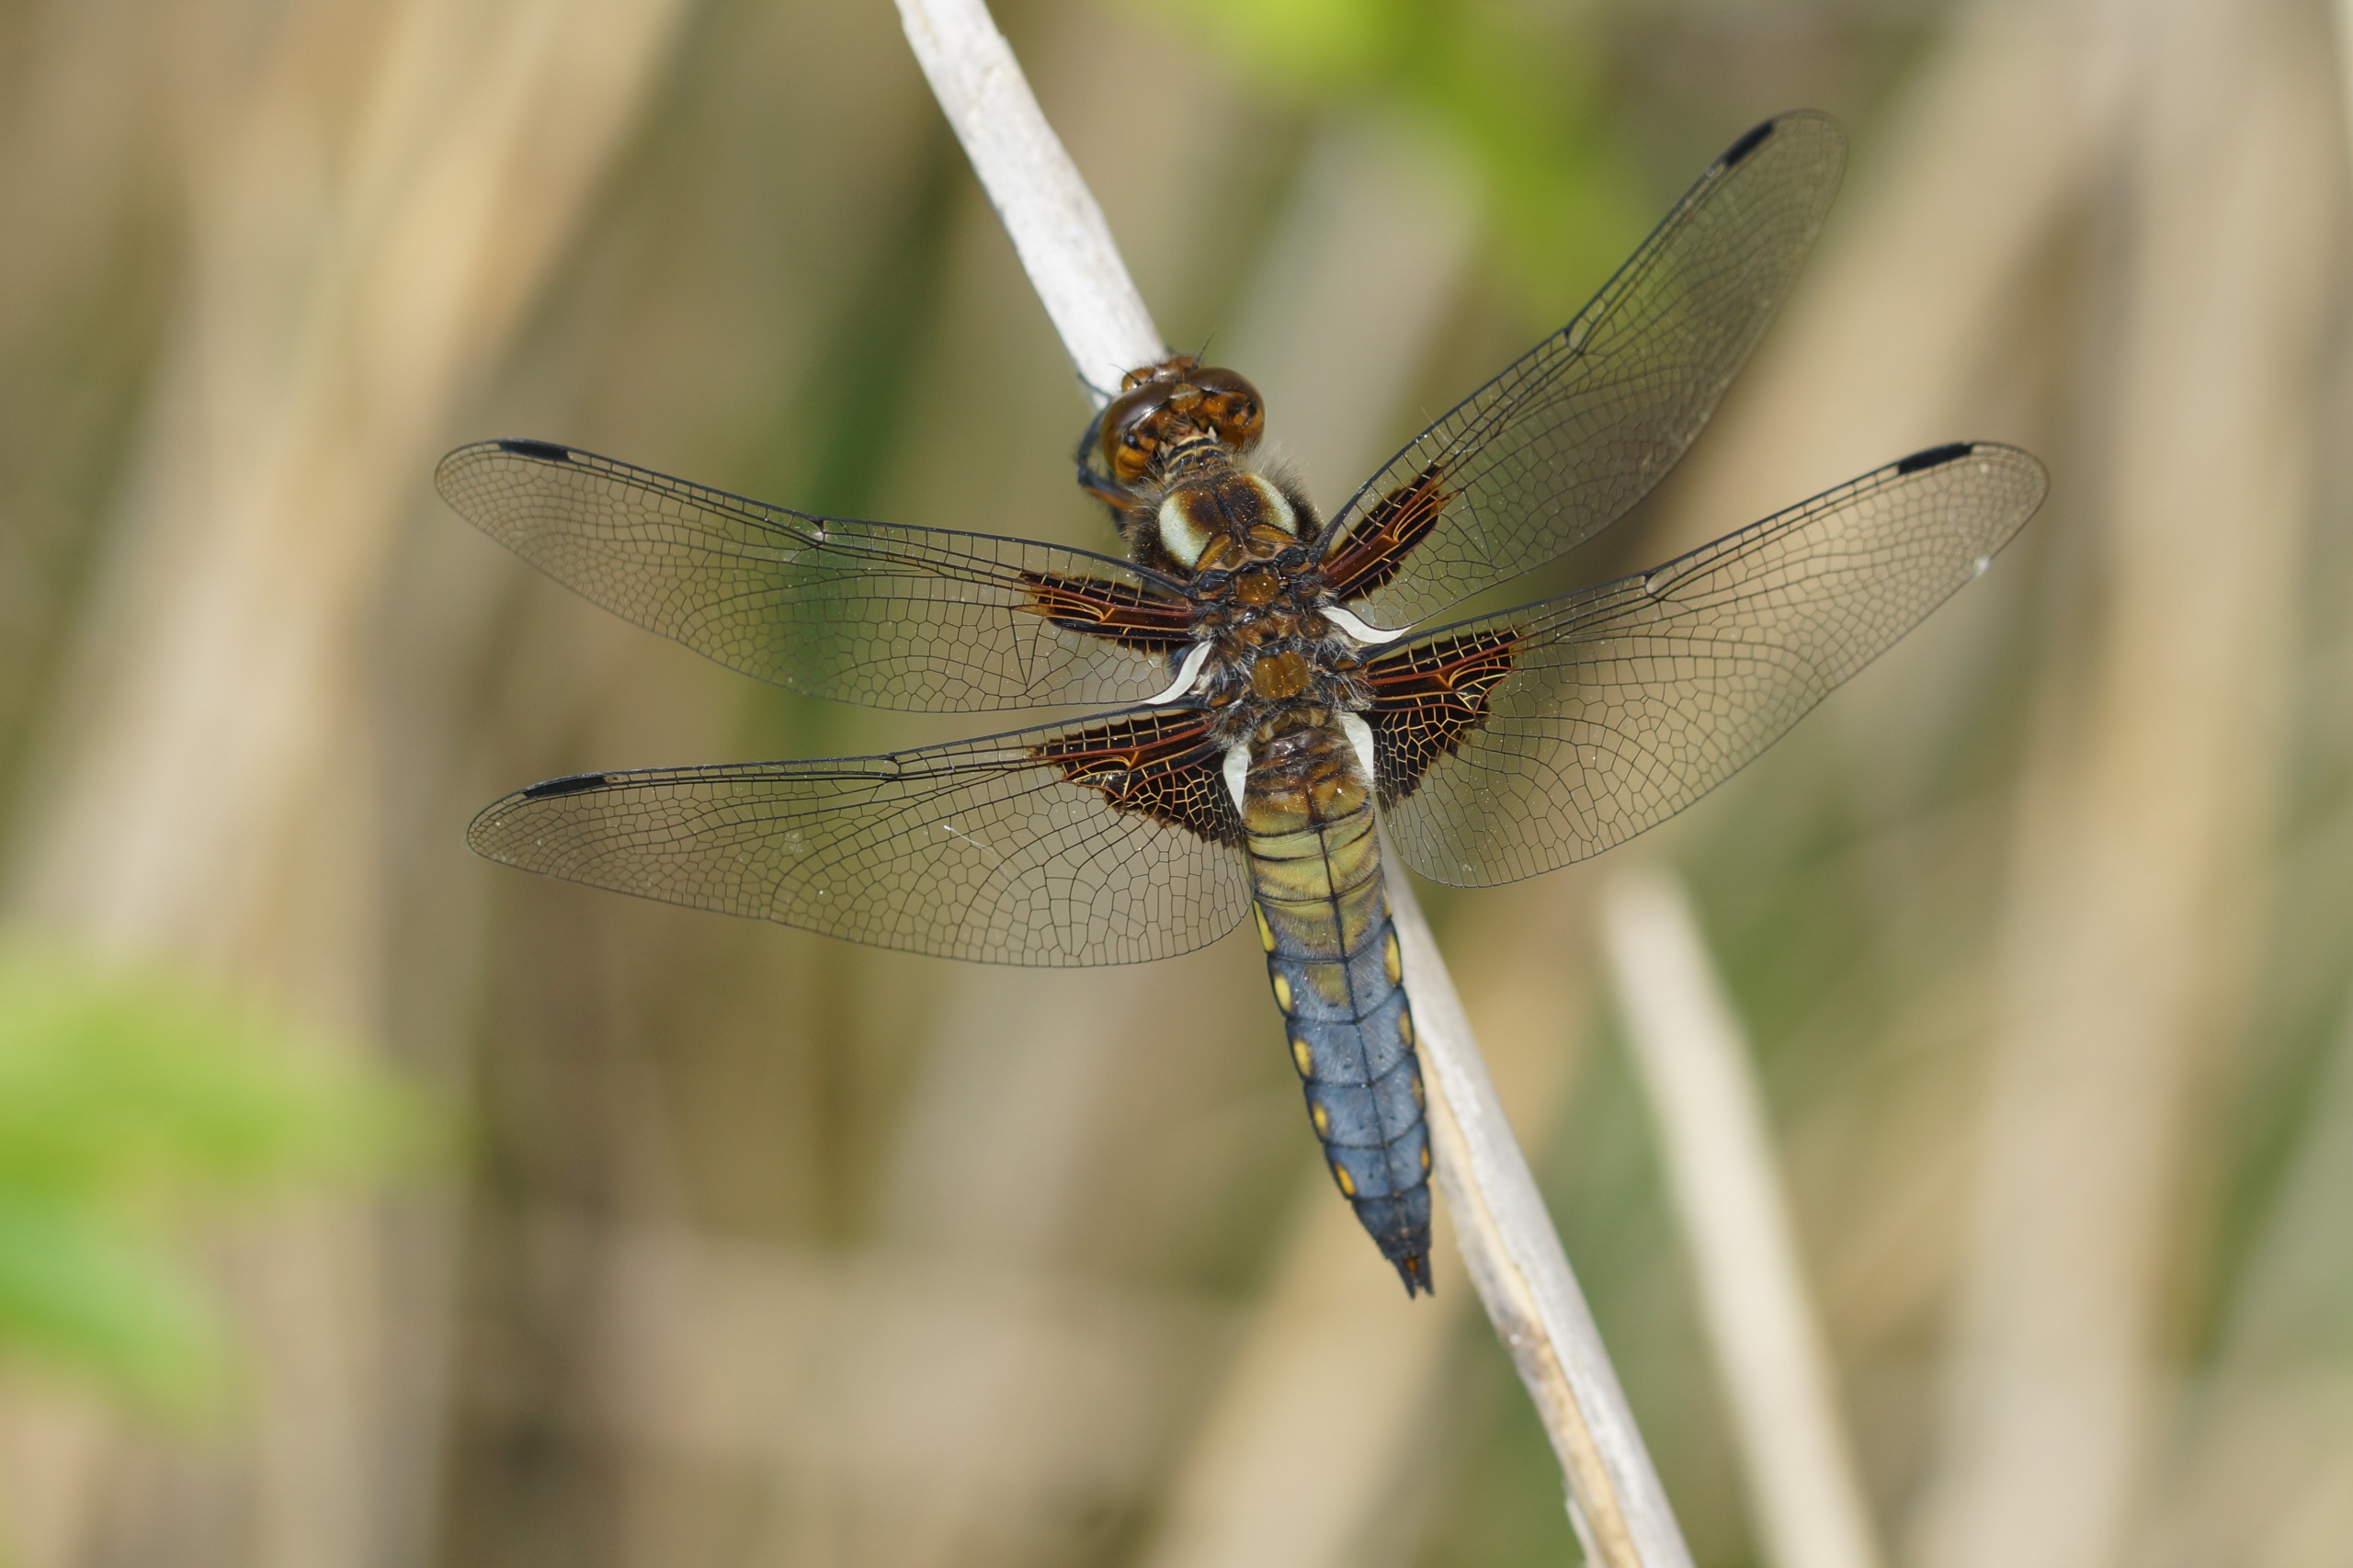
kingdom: Animalia
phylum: Arthropoda
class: Insecta
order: Odonata
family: Libellulidae
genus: Libellula
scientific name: Libellula depressa
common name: Blå libel
